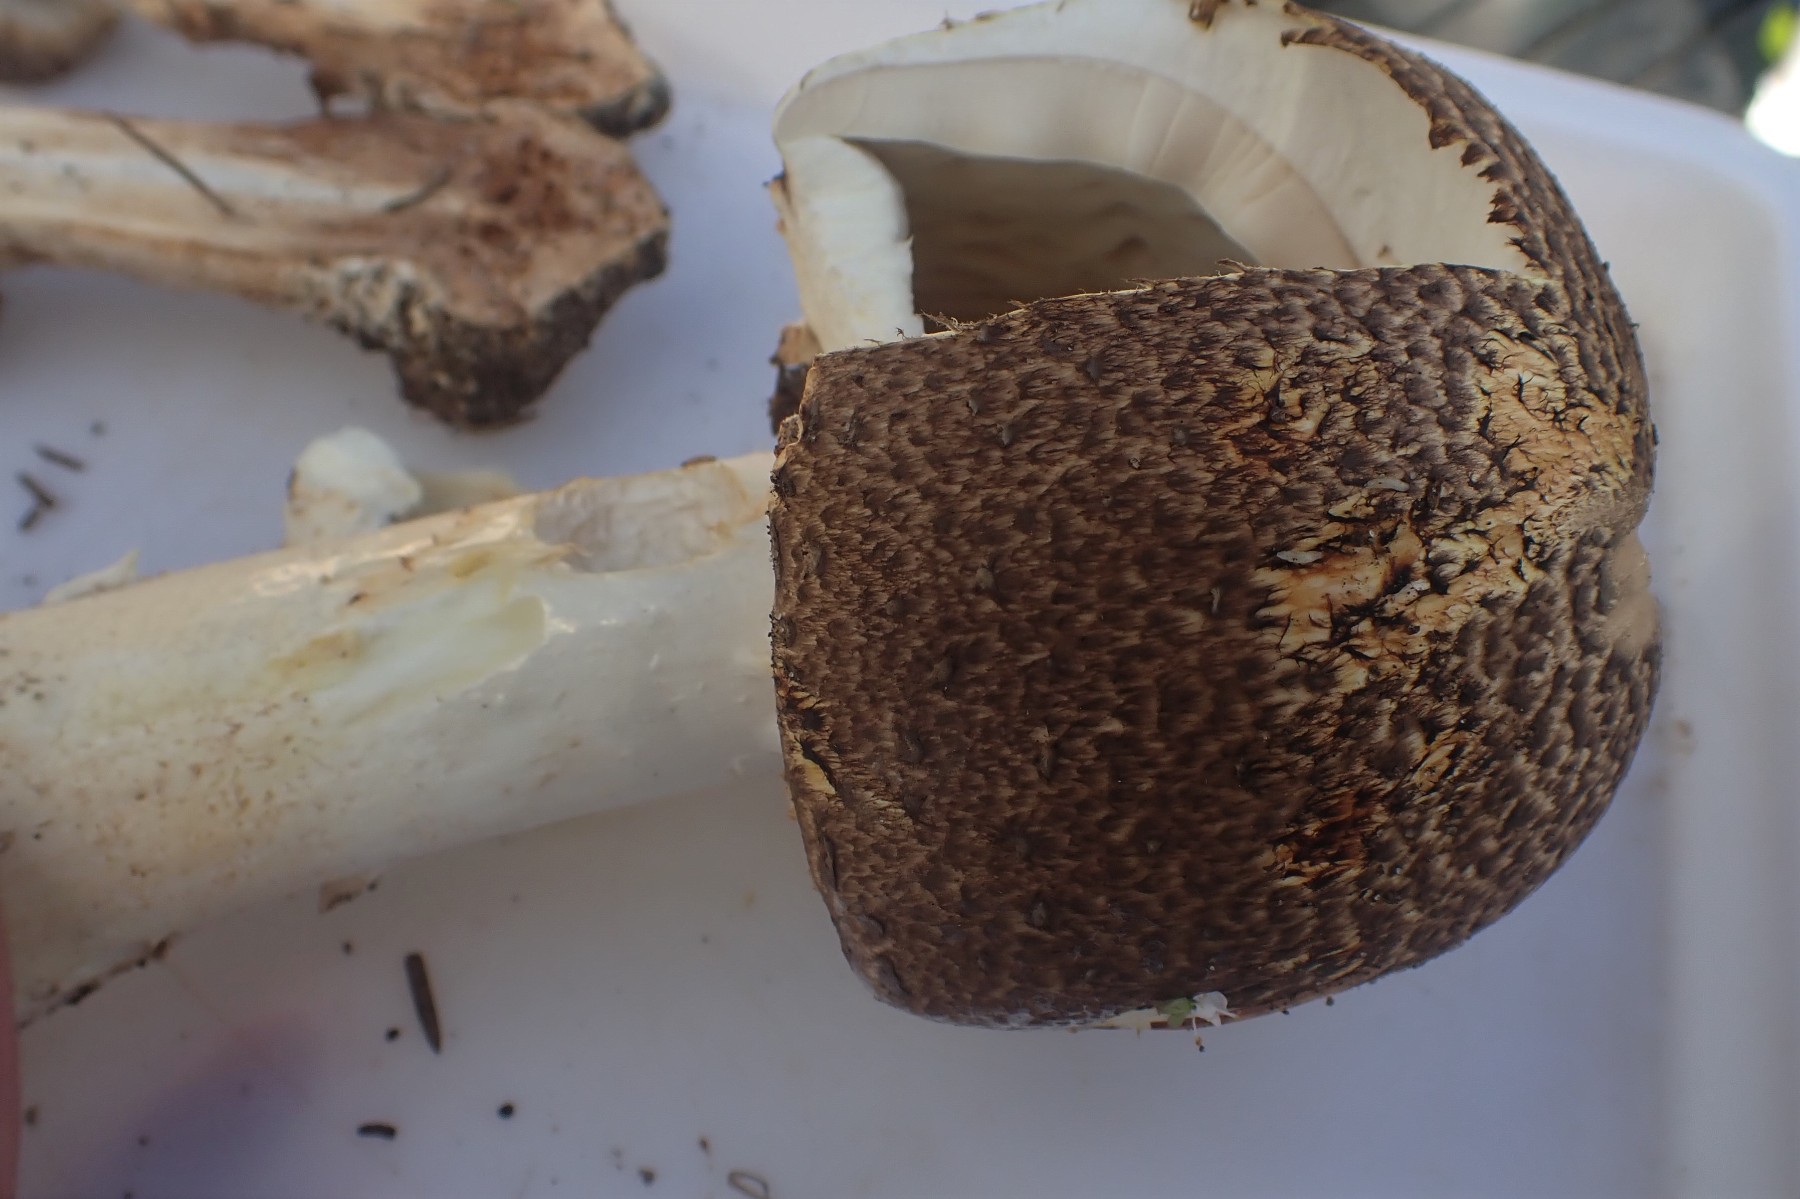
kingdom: Fungi
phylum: Basidiomycota
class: Agaricomycetes
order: Agaricales
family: Agaricaceae
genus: Agaricus
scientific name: Agaricus augustus
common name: prægtig champignon
